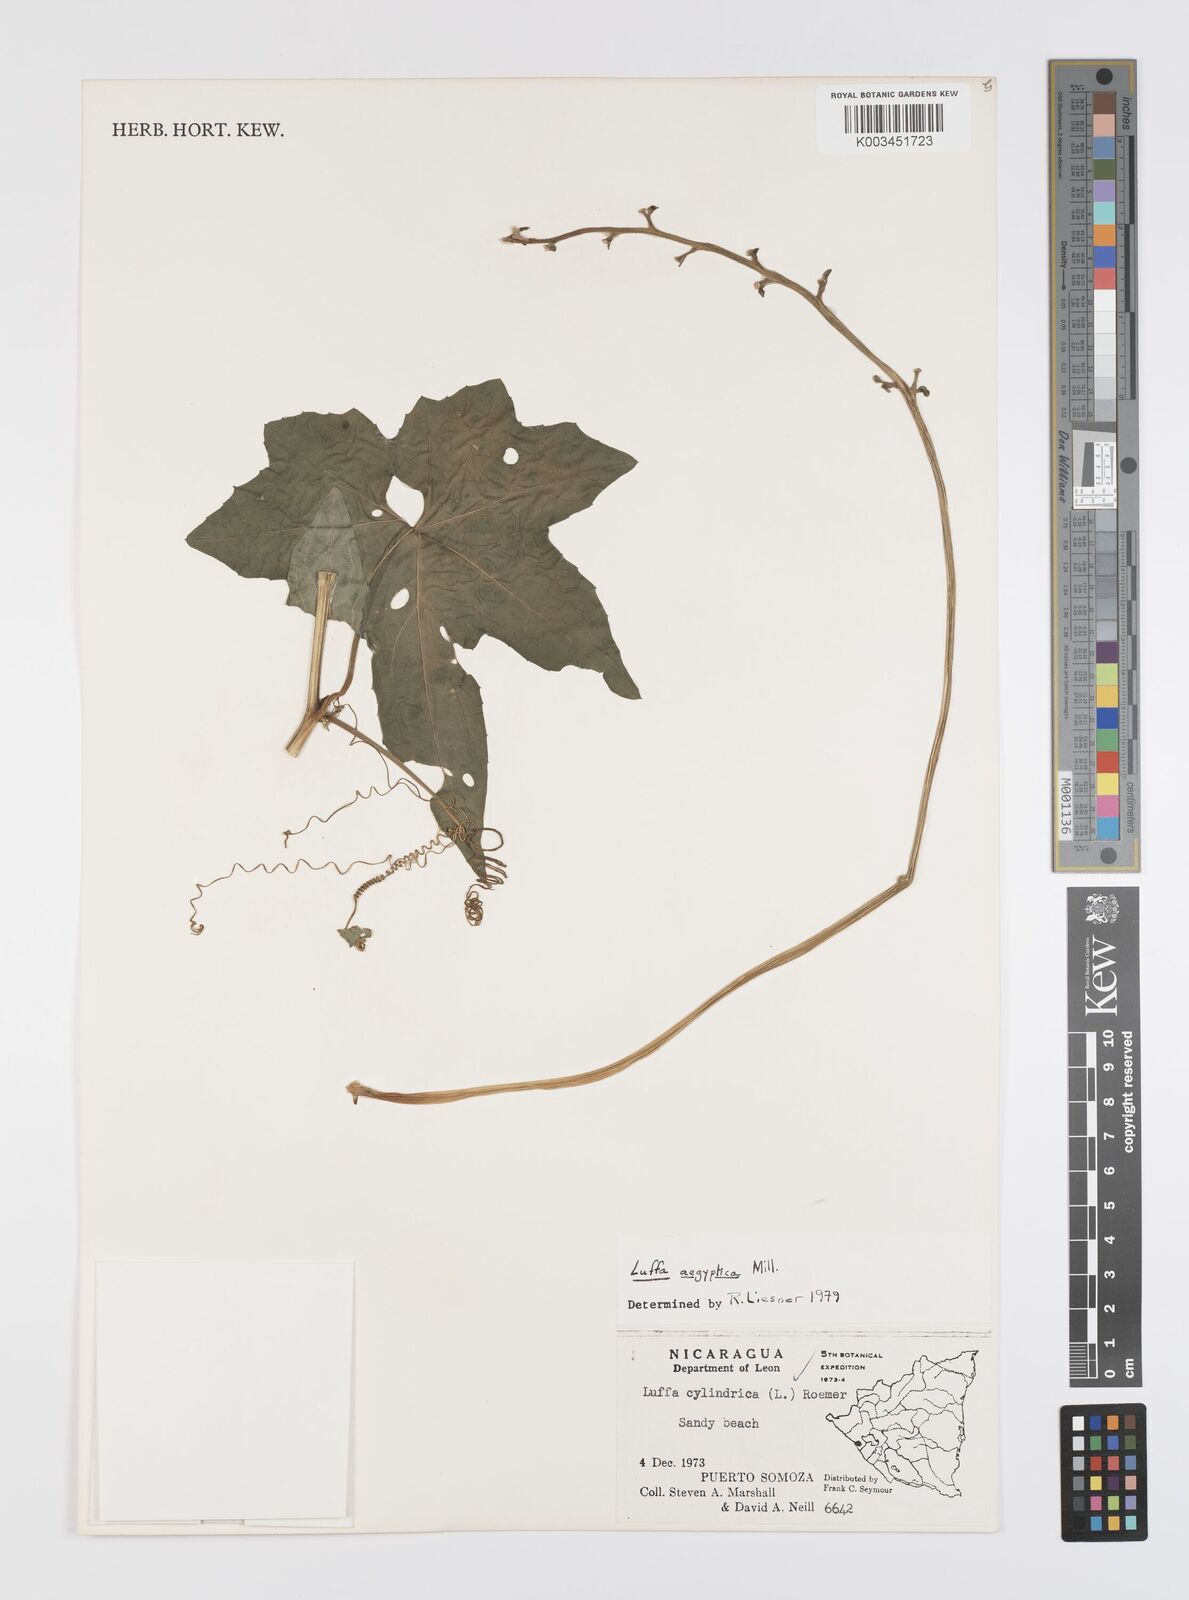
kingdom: Plantae
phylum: Tracheophyta
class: Magnoliopsida
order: Cucurbitales
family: Cucurbitaceae
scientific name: Cucurbitaceae
